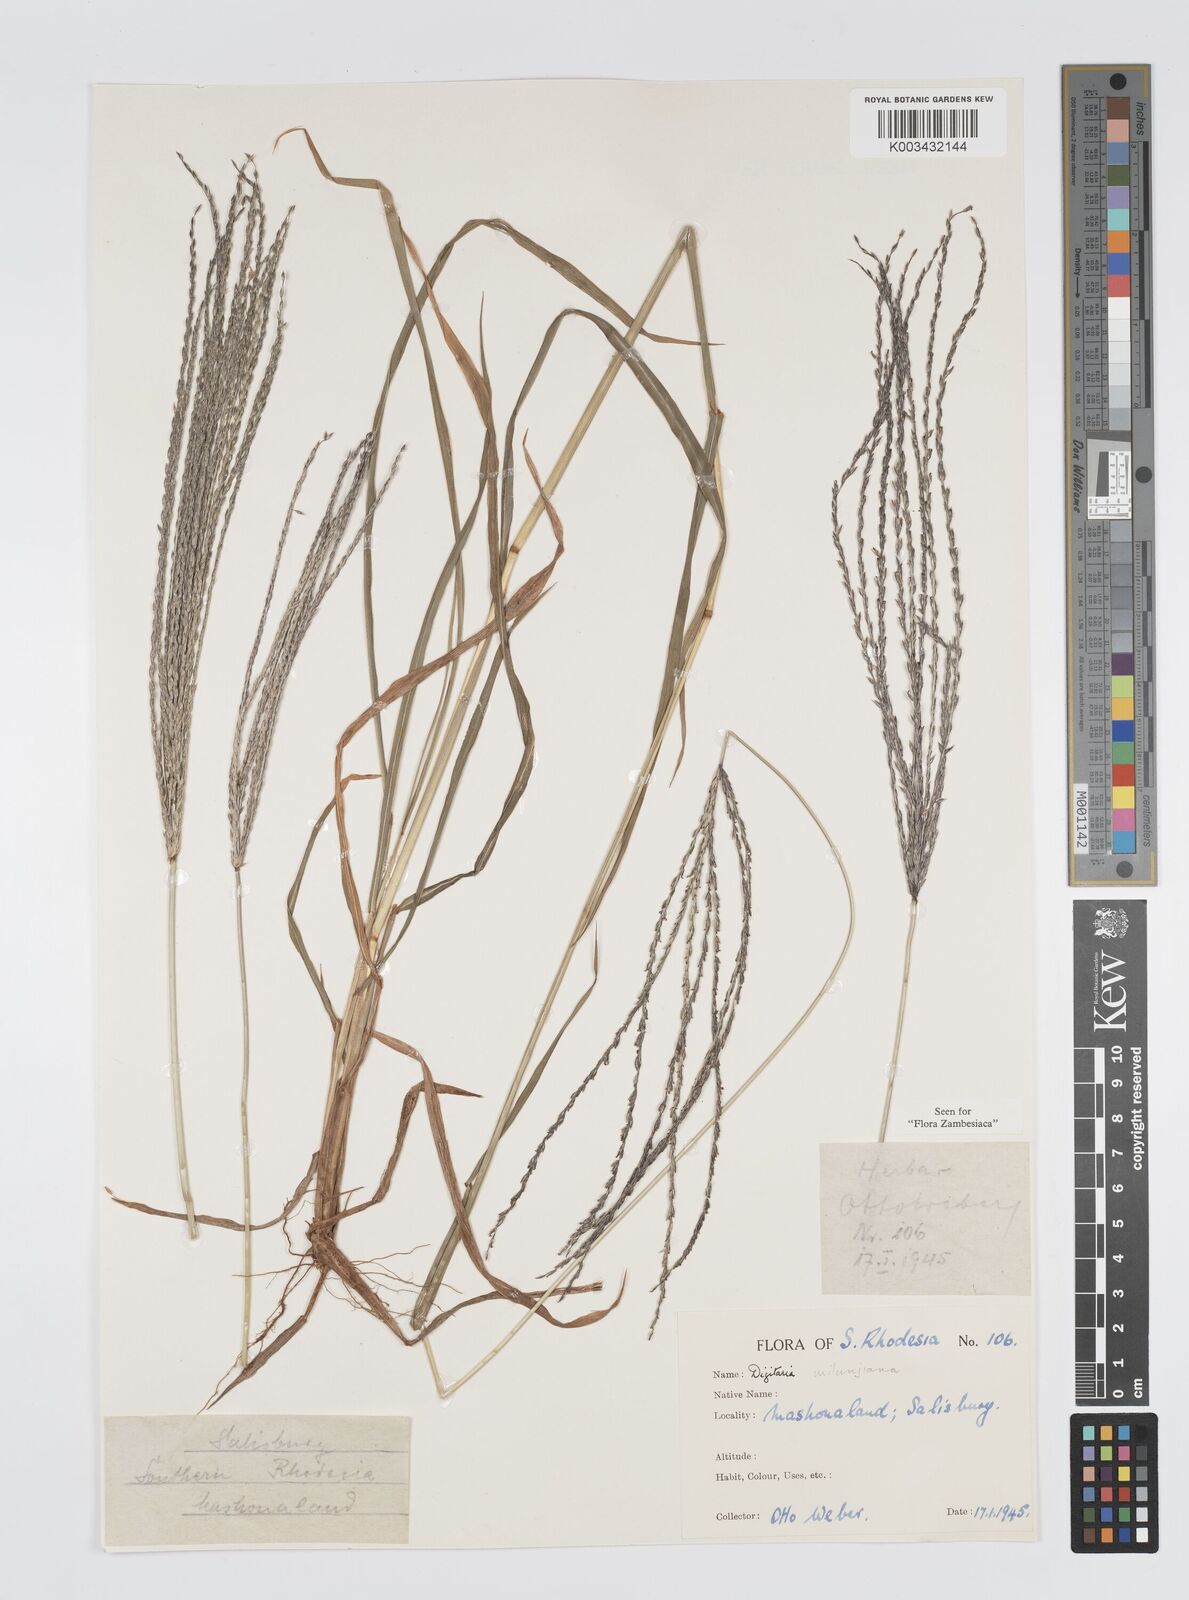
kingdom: Plantae
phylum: Tracheophyta
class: Liliopsida
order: Poales
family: Poaceae
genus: Digitaria
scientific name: Digitaria milanjiana
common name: Madagascar crabgrass
